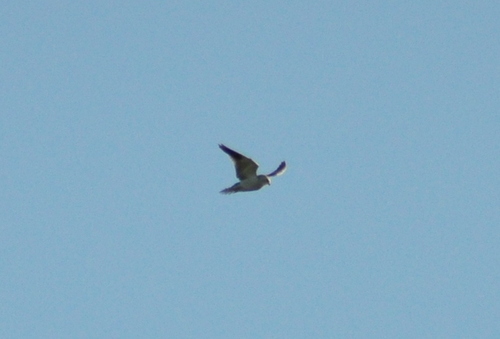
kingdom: Animalia
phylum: Chordata
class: Aves
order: Accipitriformes
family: Accipitridae
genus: Elanus
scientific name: Elanus caeruleus
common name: Black-winged kite
